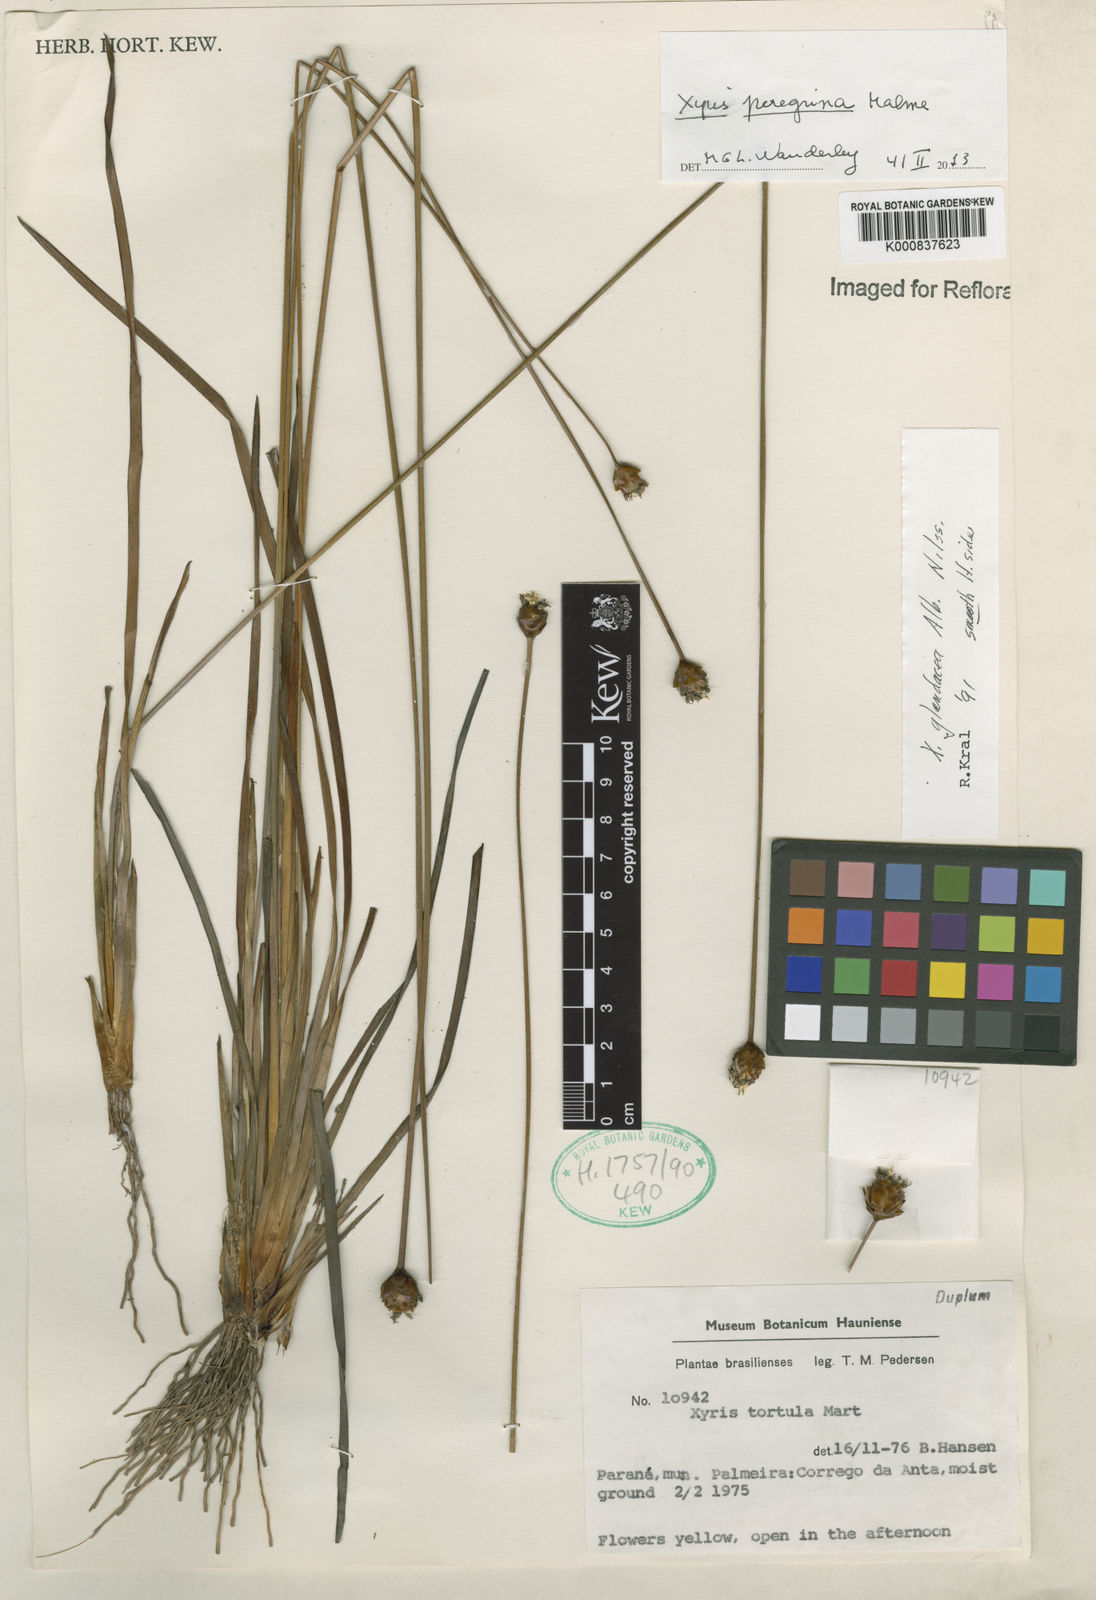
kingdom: Plantae
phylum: Tracheophyta
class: Liliopsida
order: Poales
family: Xyridaceae
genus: Xyris
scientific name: Xyris pterygoblephara
